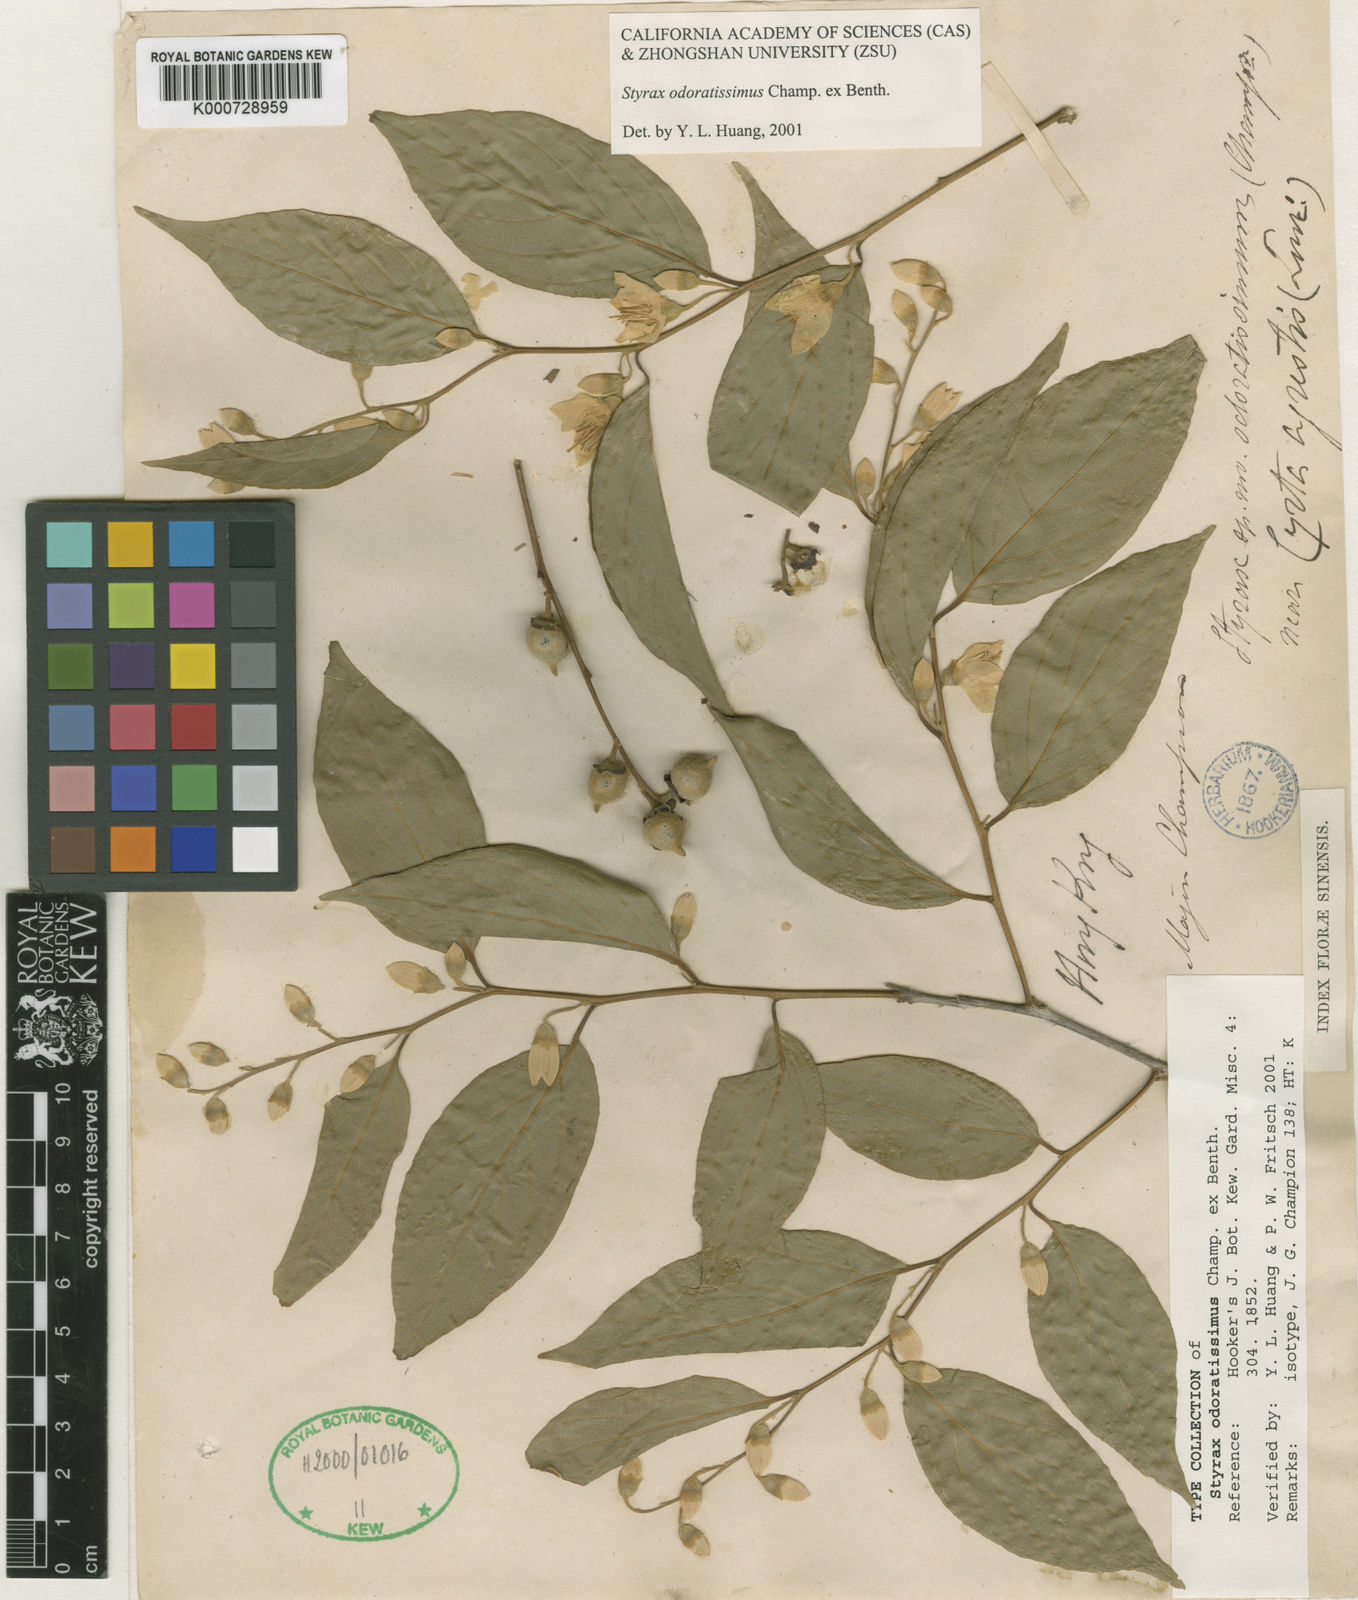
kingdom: Plantae
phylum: Tracheophyta
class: Magnoliopsida
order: Ericales
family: Styracaceae
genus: Styrax
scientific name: Styrax odoratissimus
